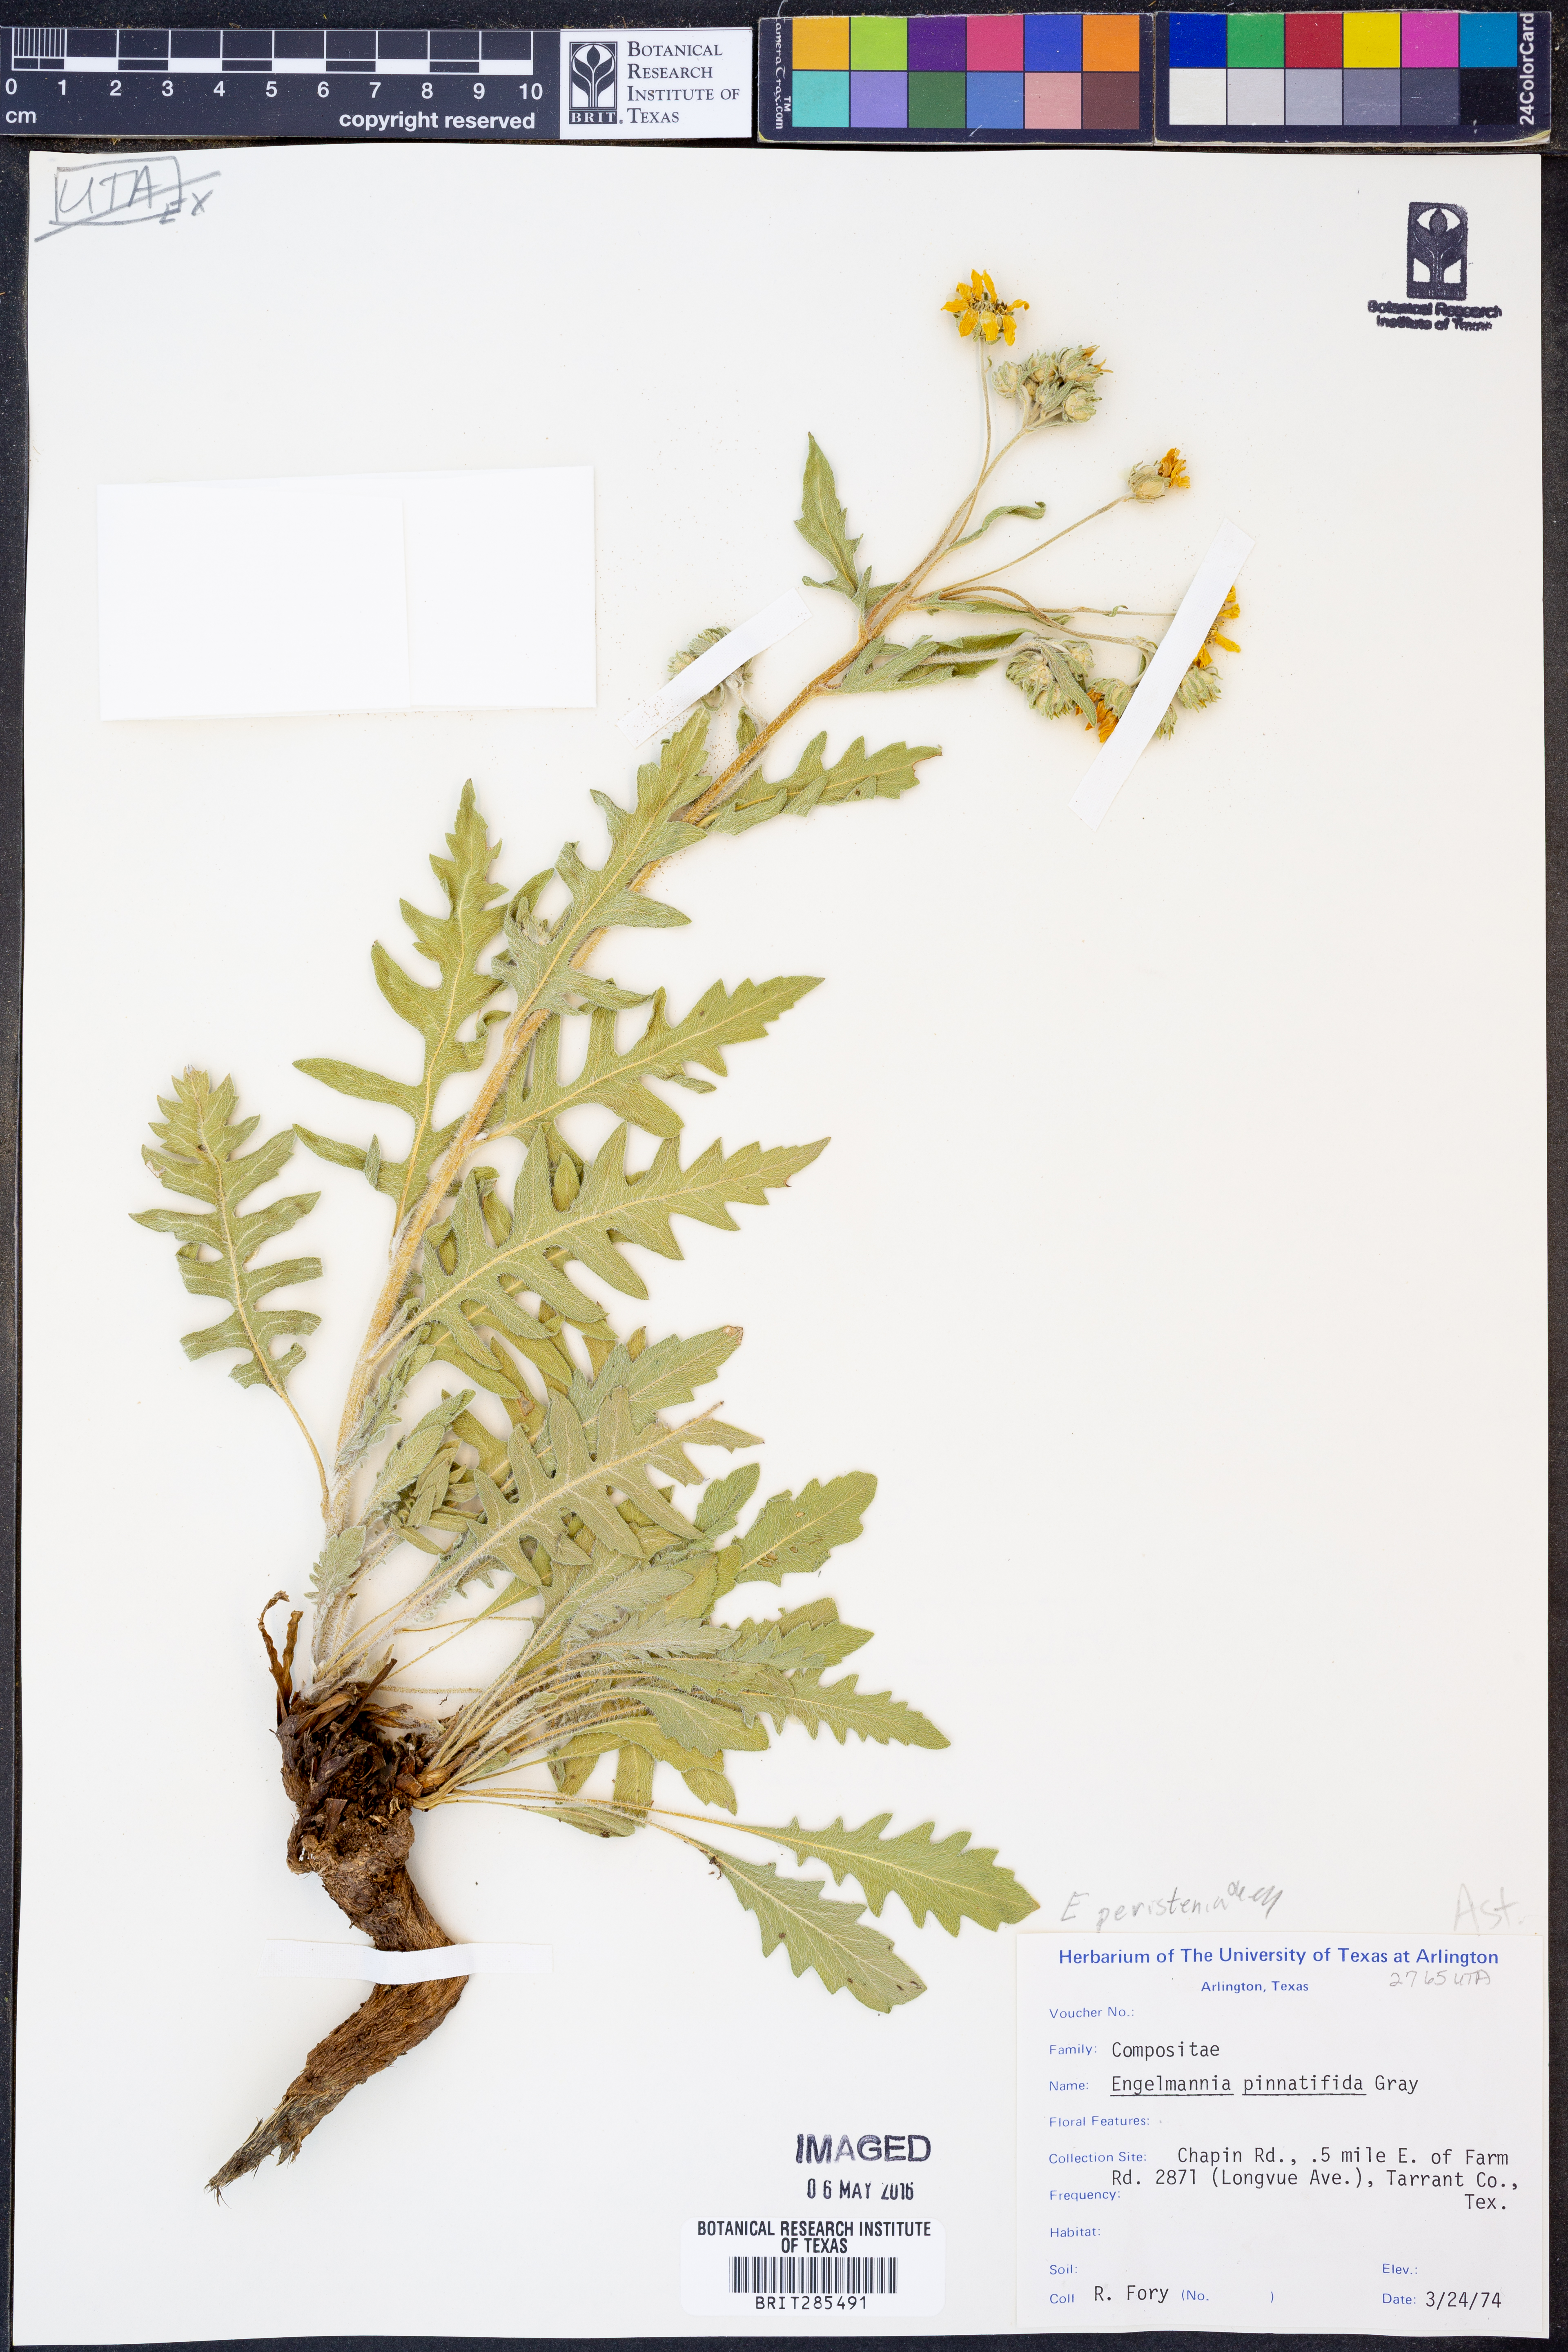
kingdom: Plantae
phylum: Tracheophyta
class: Magnoliopsida
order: Asterales
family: Asteraceae
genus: Engelmannia
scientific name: Engelmannia peristenia
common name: Engelmann's daisy
